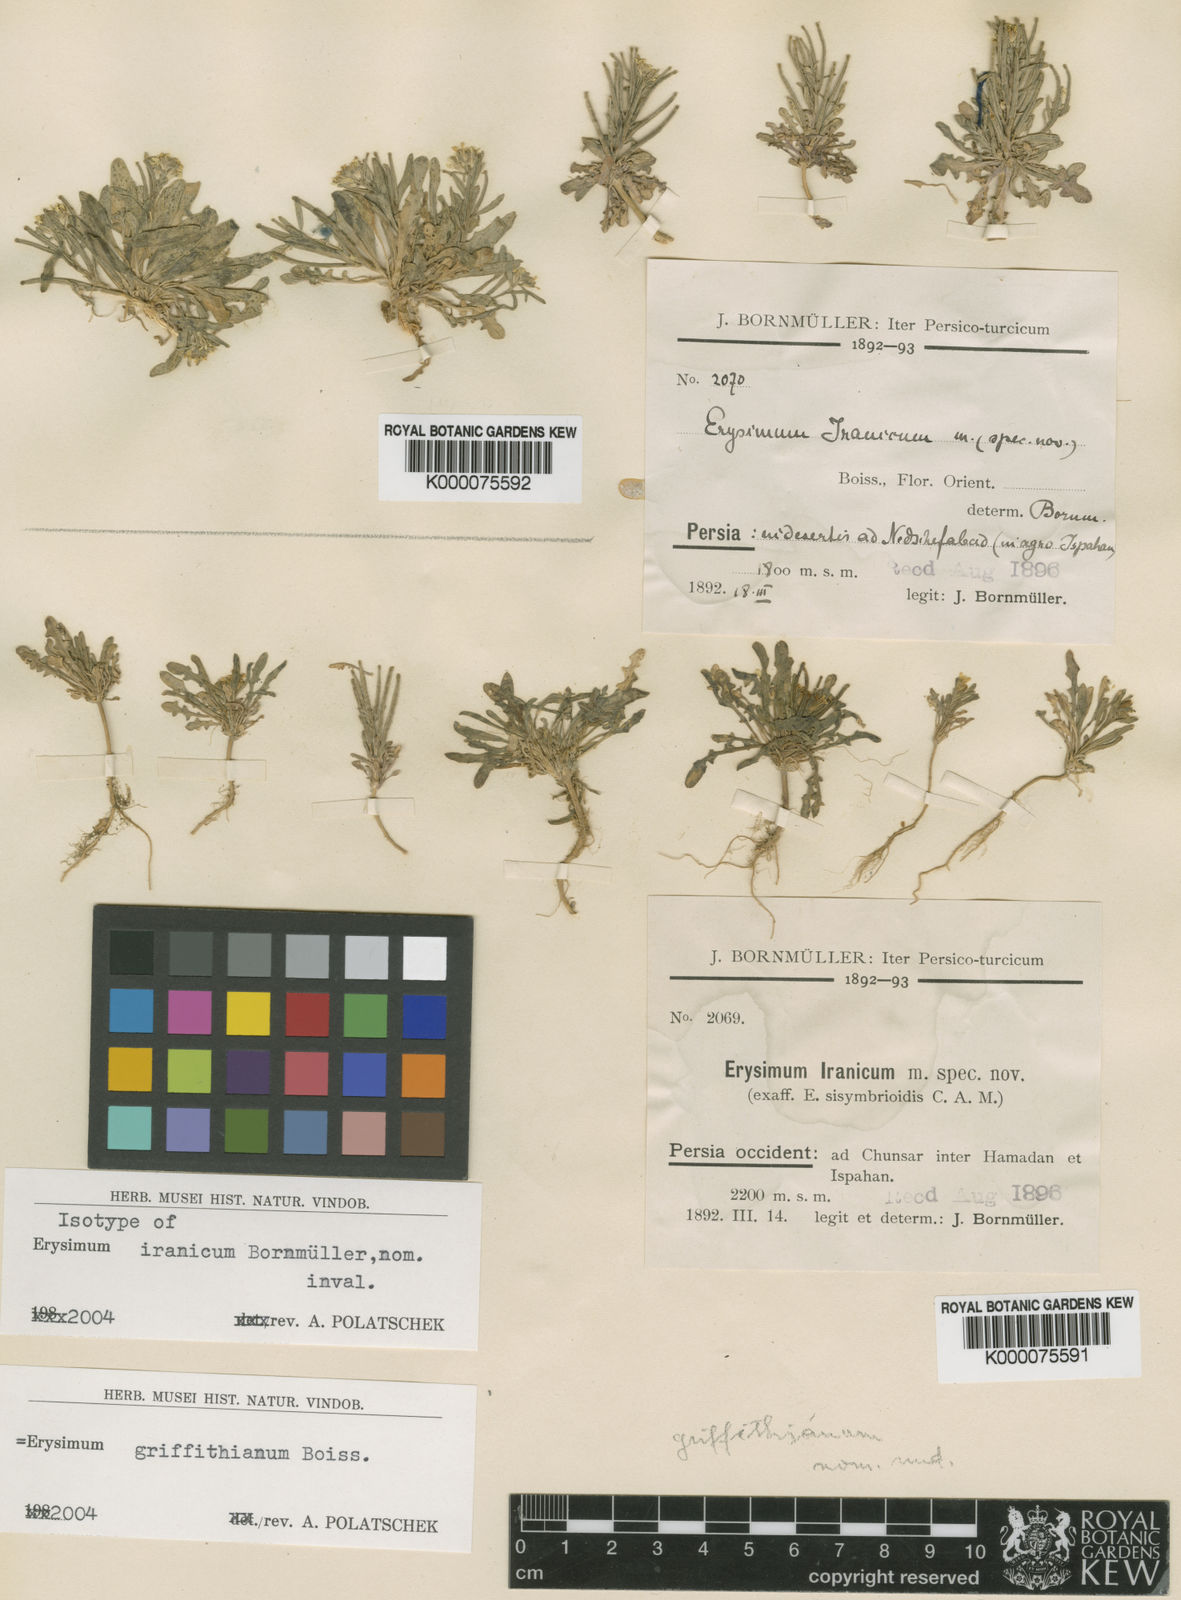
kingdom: Plantae
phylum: Tracheophyta
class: Magnoliopsida
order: Brassicales
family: Brassicaceae
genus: Erysimum
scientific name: Erysimum sisymbrioides
